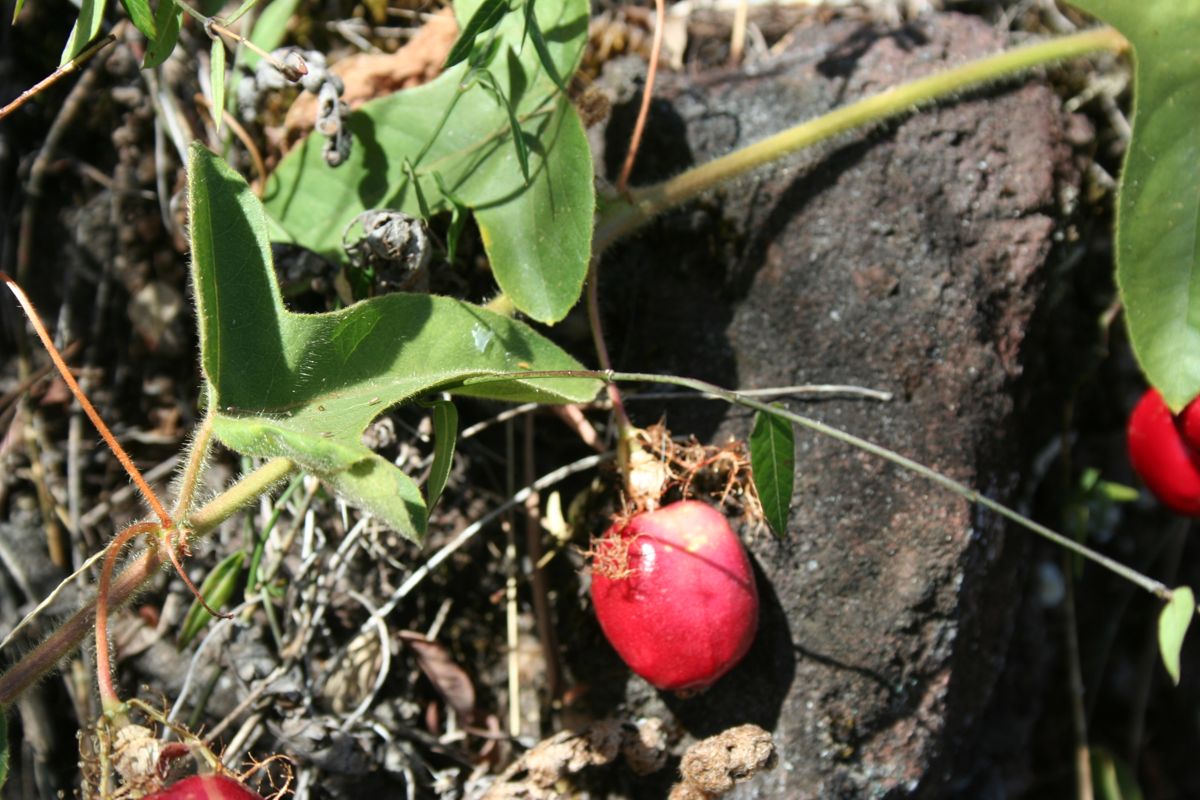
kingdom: Plantae
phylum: Tracheophyta
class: Magnoliopsida
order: Malpighiales
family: Passifloraceae
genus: Passiflora
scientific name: Passiflora foetida
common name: Fetid passionflower
